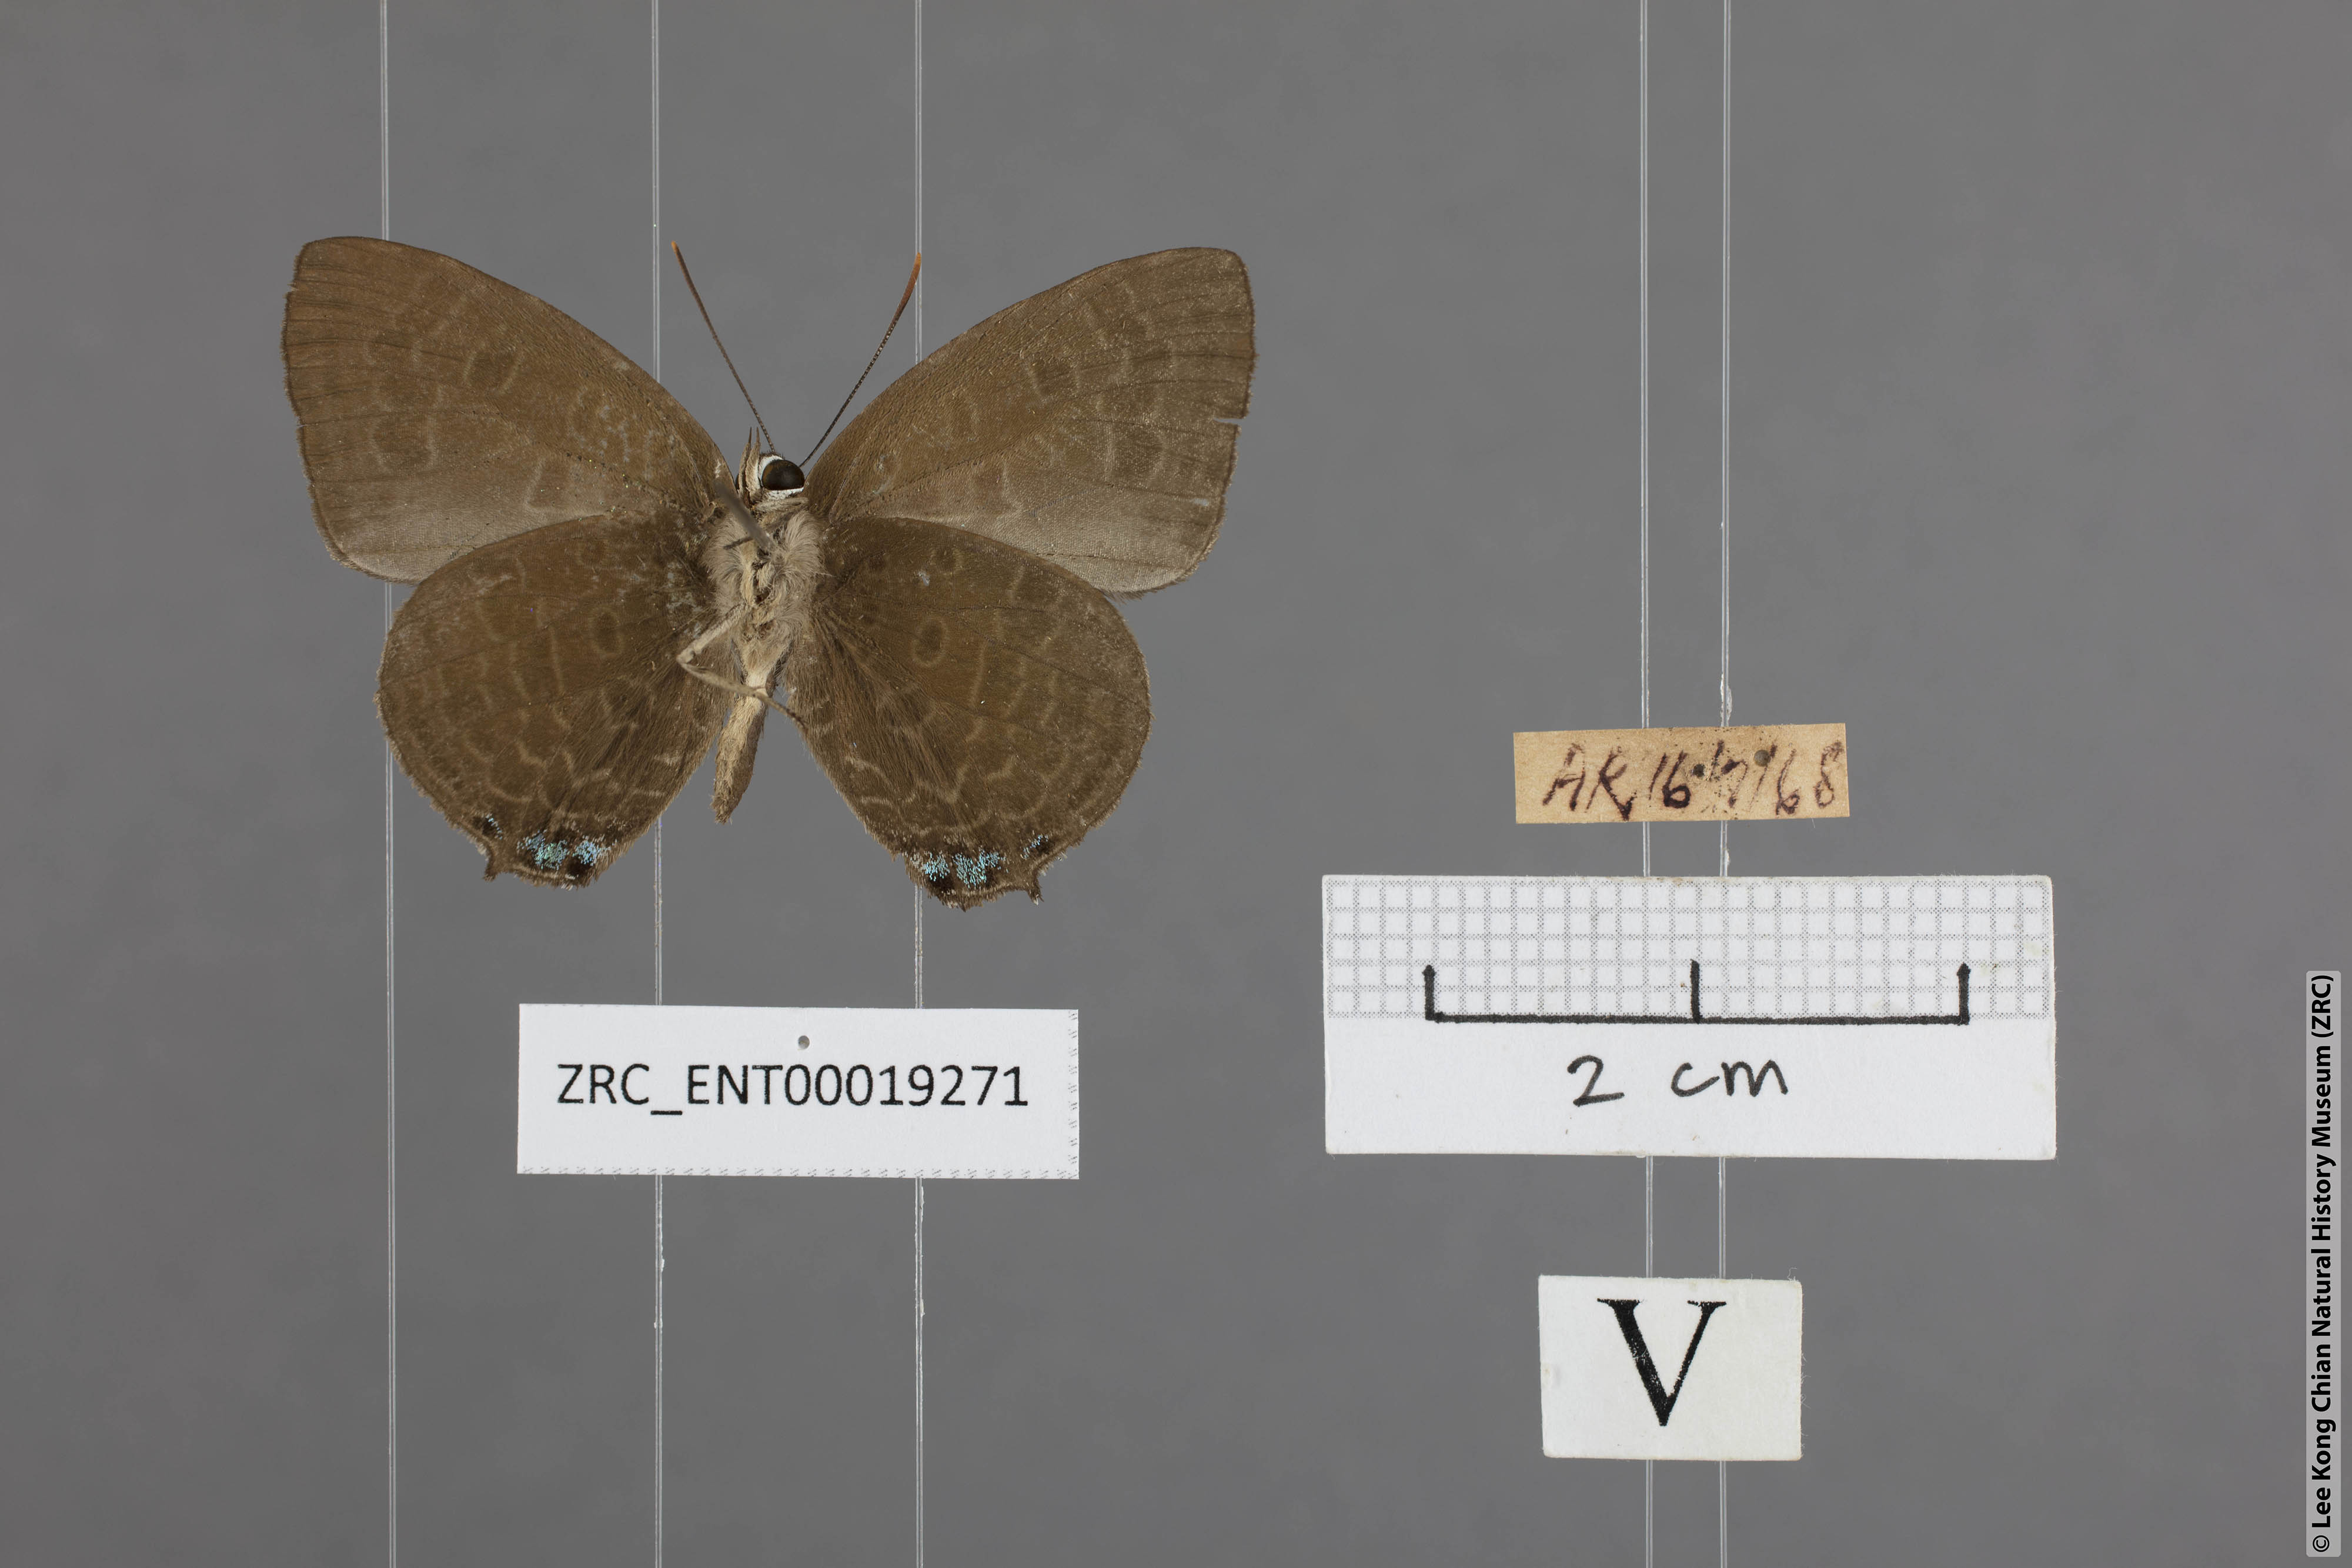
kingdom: Animalia
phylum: Arthropoda
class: Insecta
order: Lepidoptera
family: Lycaenidae
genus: Arhopala
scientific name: Arhopala aurea
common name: Long-celled oakblue
